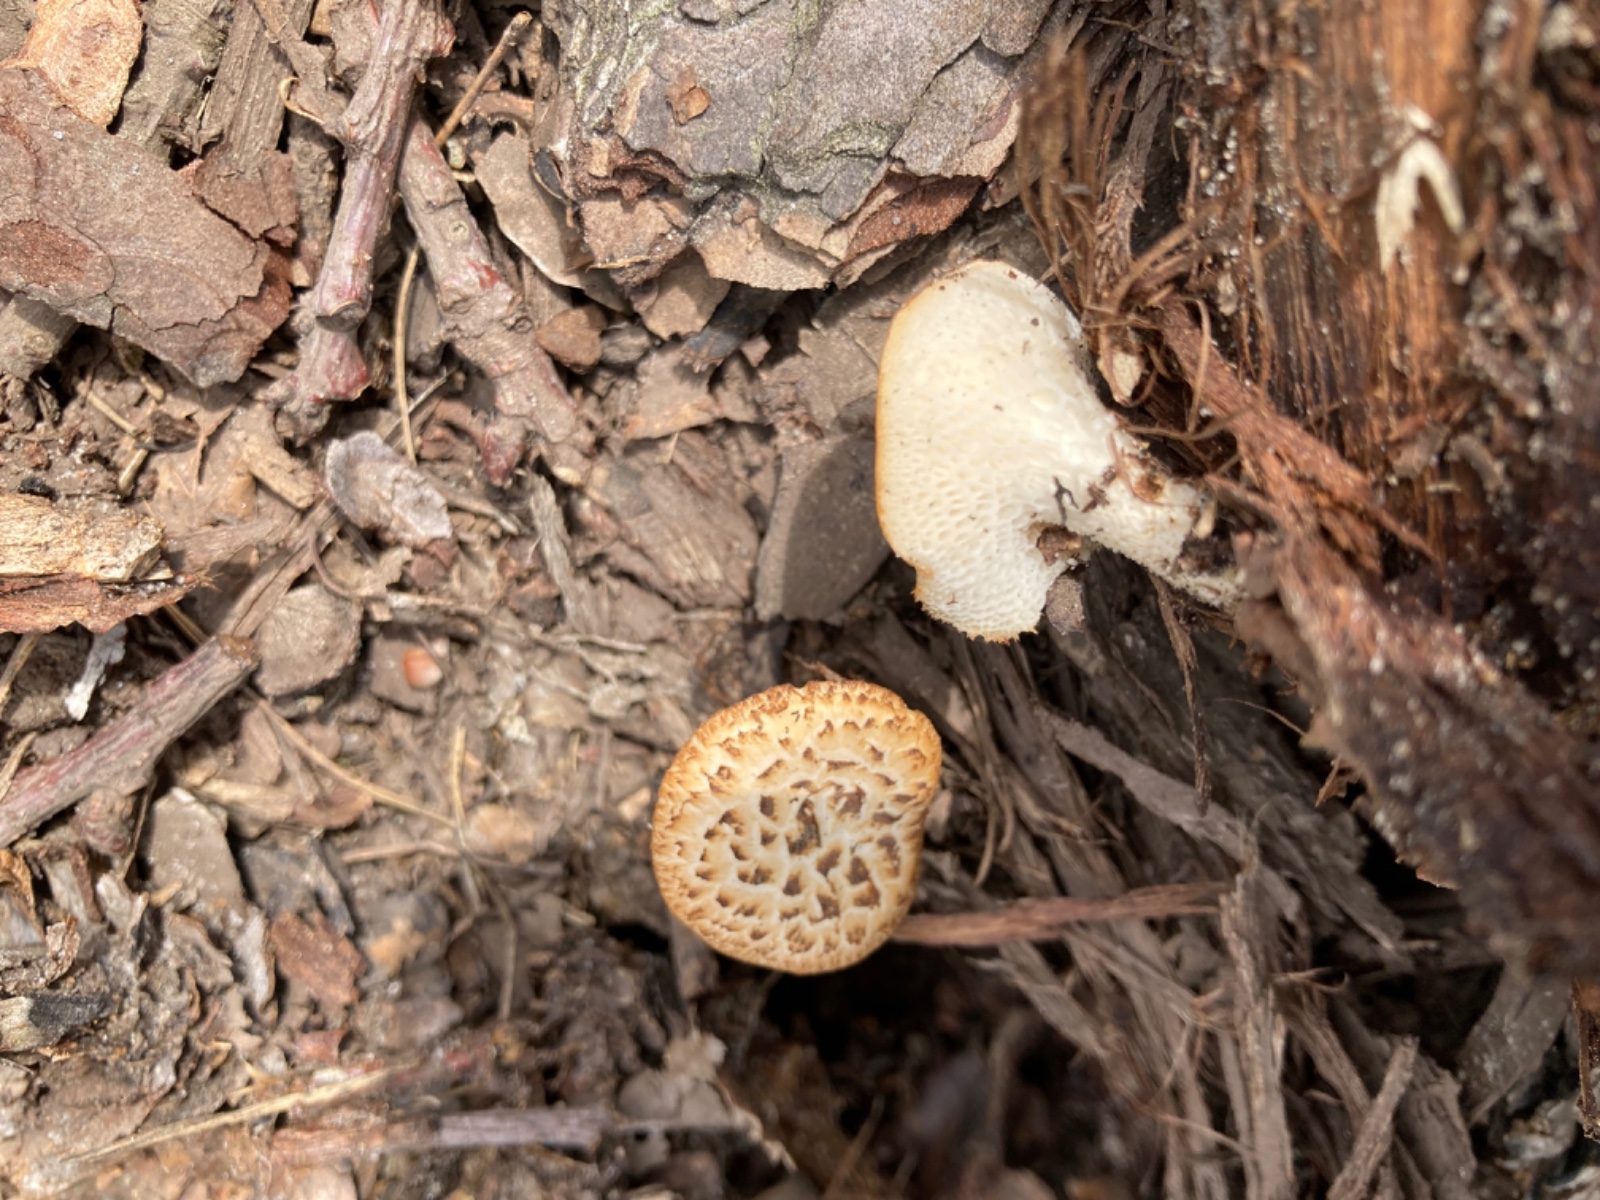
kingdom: Fungi
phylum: Basidiomycota
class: Agaricomycetes
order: Polyporales
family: Polyporaceae
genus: Polyporus
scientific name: Polyporus tuberaster
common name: knoldet stilkporesvamp
